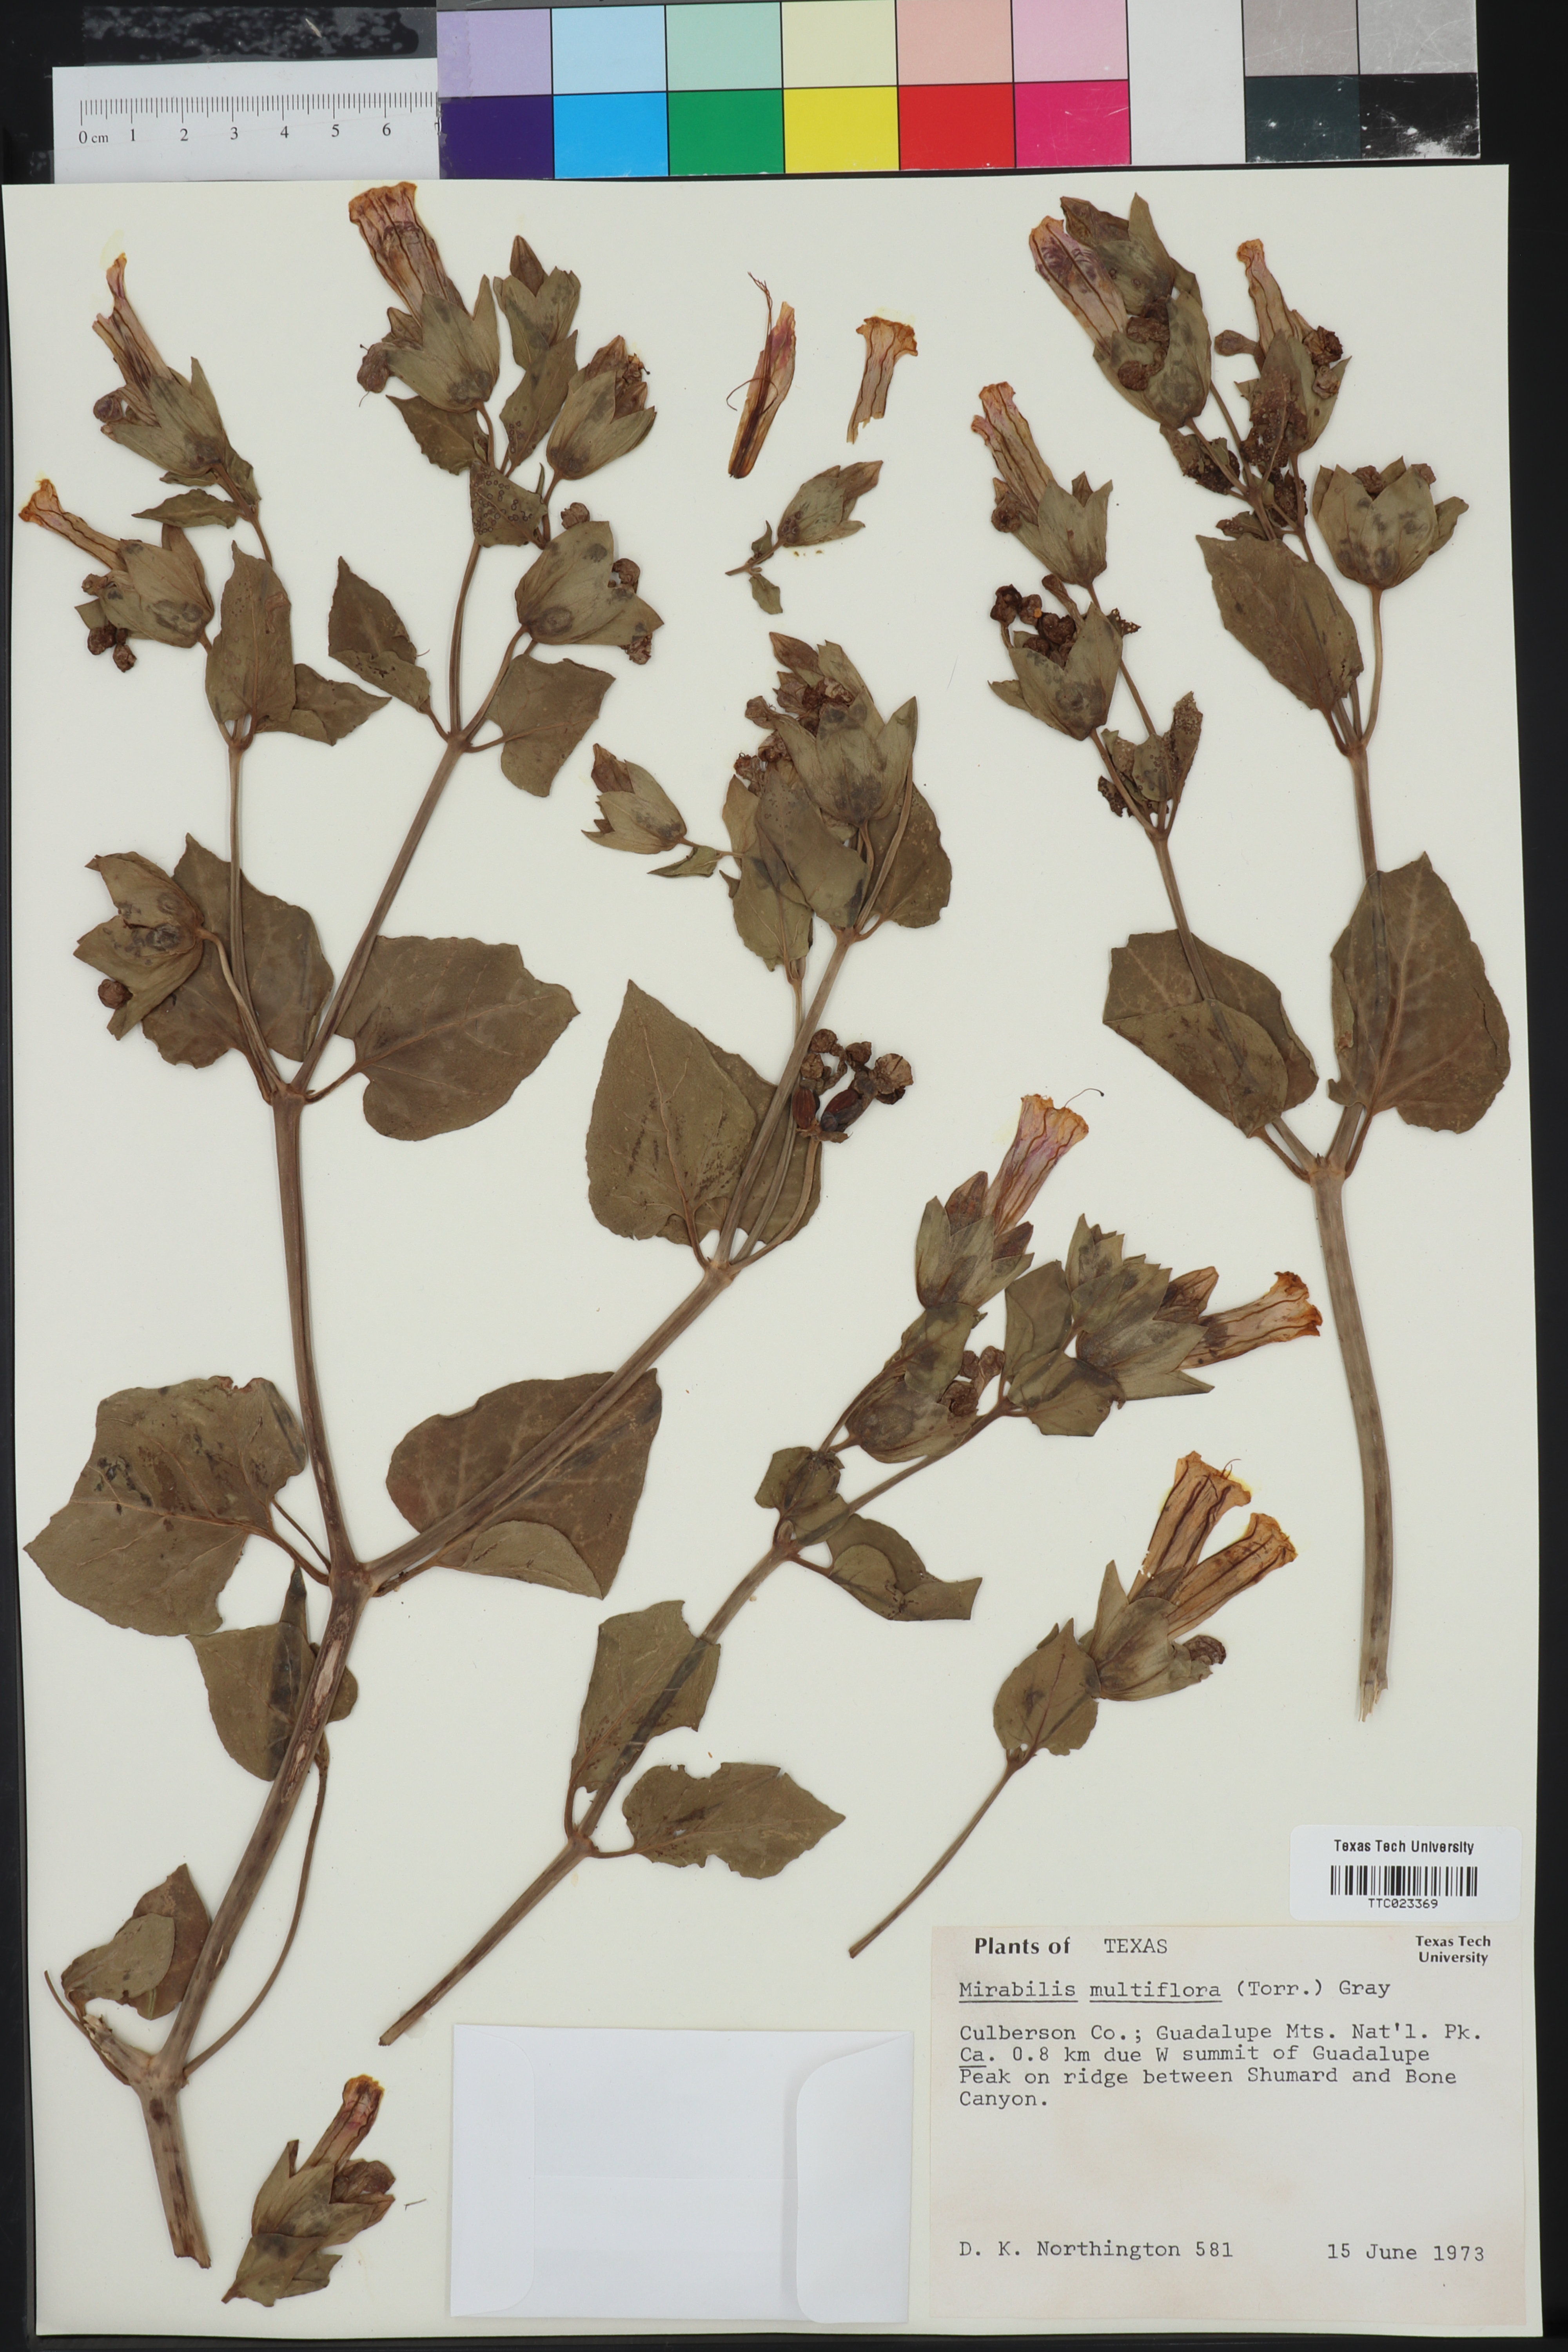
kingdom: Plantae
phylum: Tracheophyta
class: Magnoliopsida
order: Caryophyllales
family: Nyctaginaceae
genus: Mirabilis
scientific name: Mirabilis multiflora
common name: Froebel's four-o'clock
